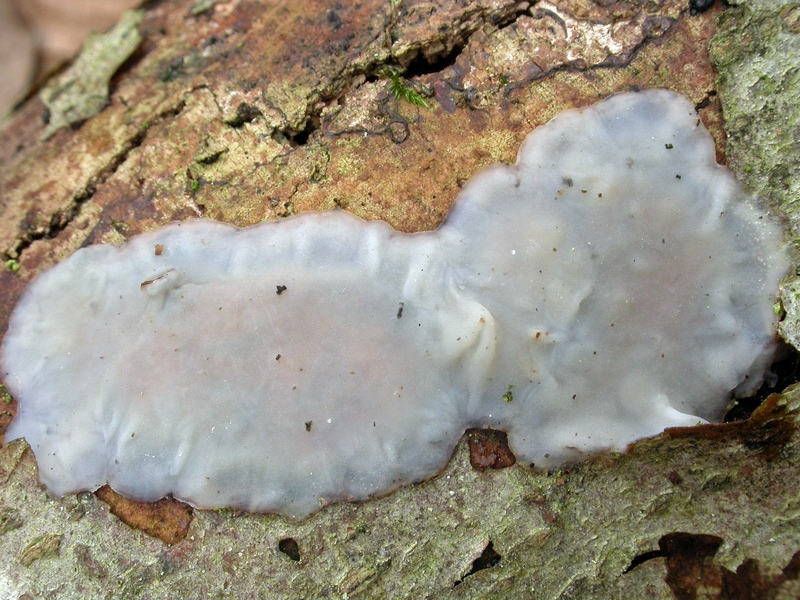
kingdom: Fungi
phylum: Basidiomycota
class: Agaricomycetes
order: Auriculariales
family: Auriculariaceae
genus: Exidia
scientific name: Exidia thuretiana
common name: hvidlig bævretop
